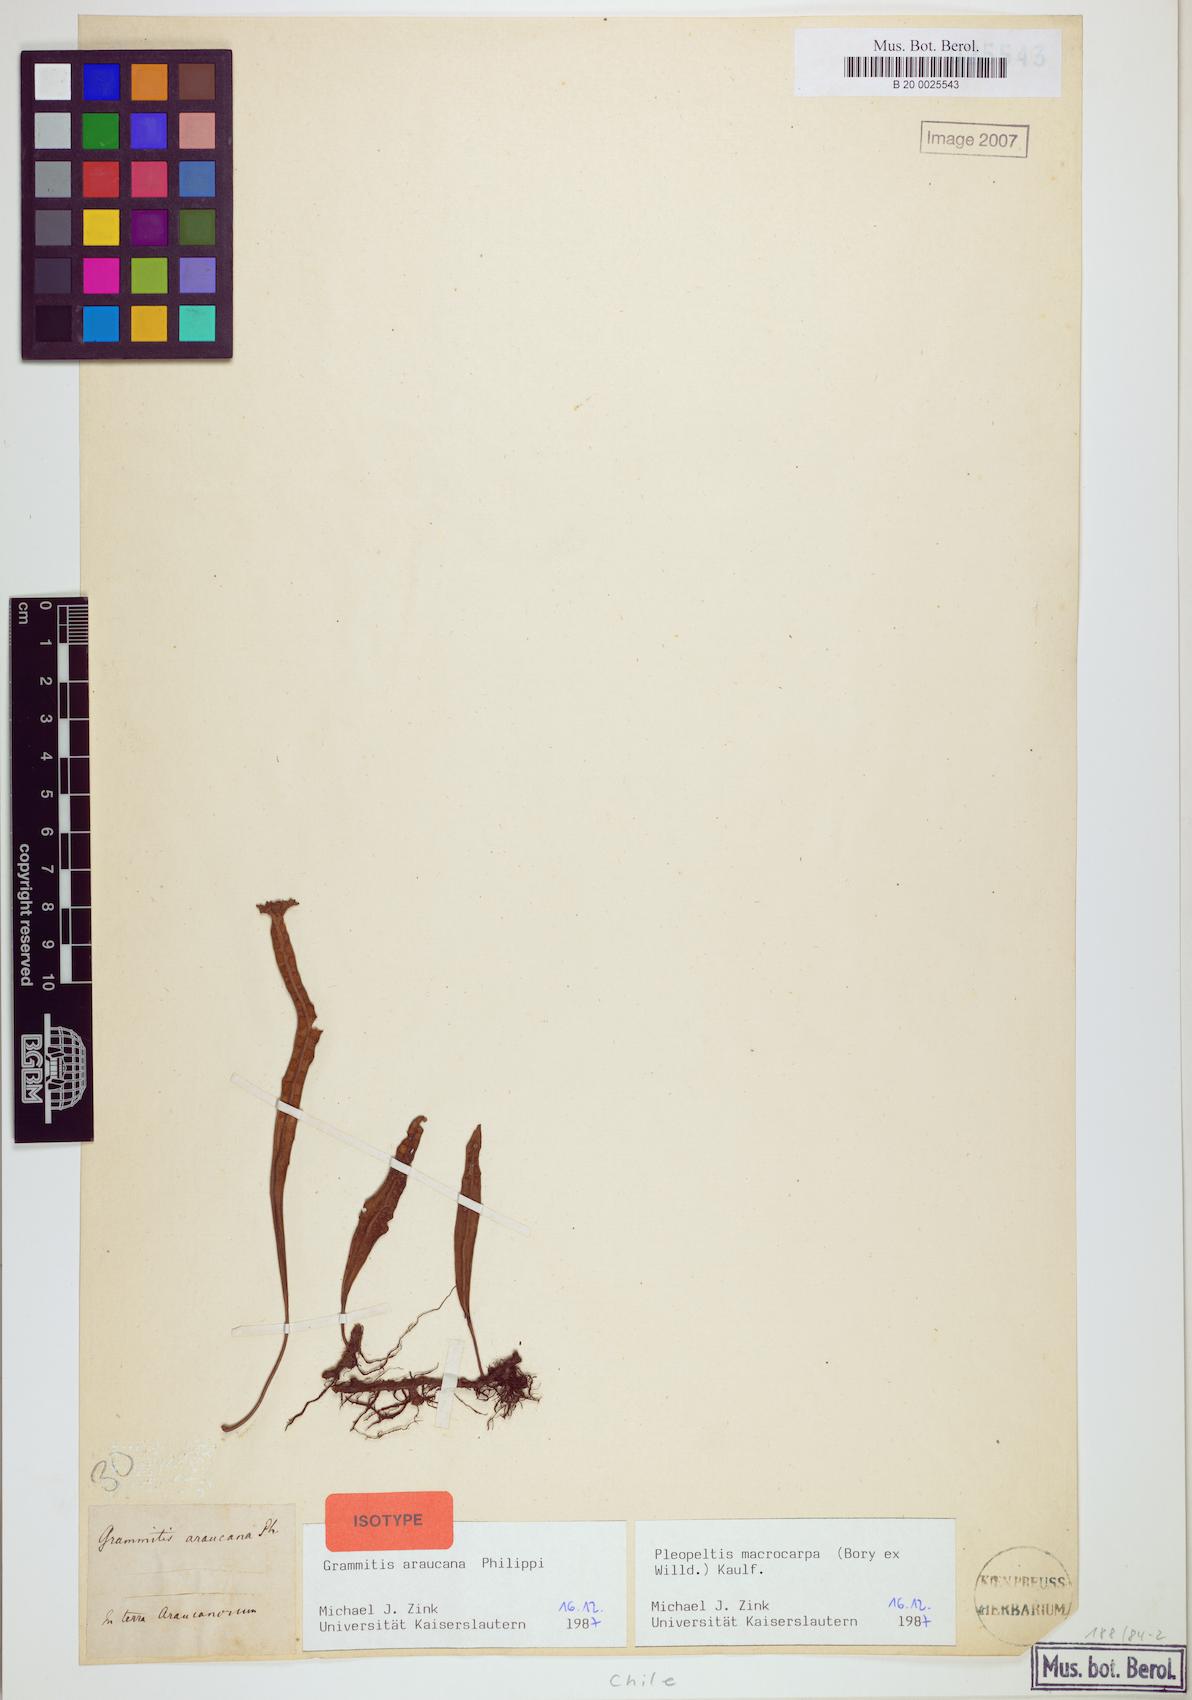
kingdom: Plantae
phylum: Tracheophyta
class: Polypodiopsida
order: Polypodiales
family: Polypodiaceae
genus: Pleopeltis
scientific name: Pleopeltis macrocarpa
